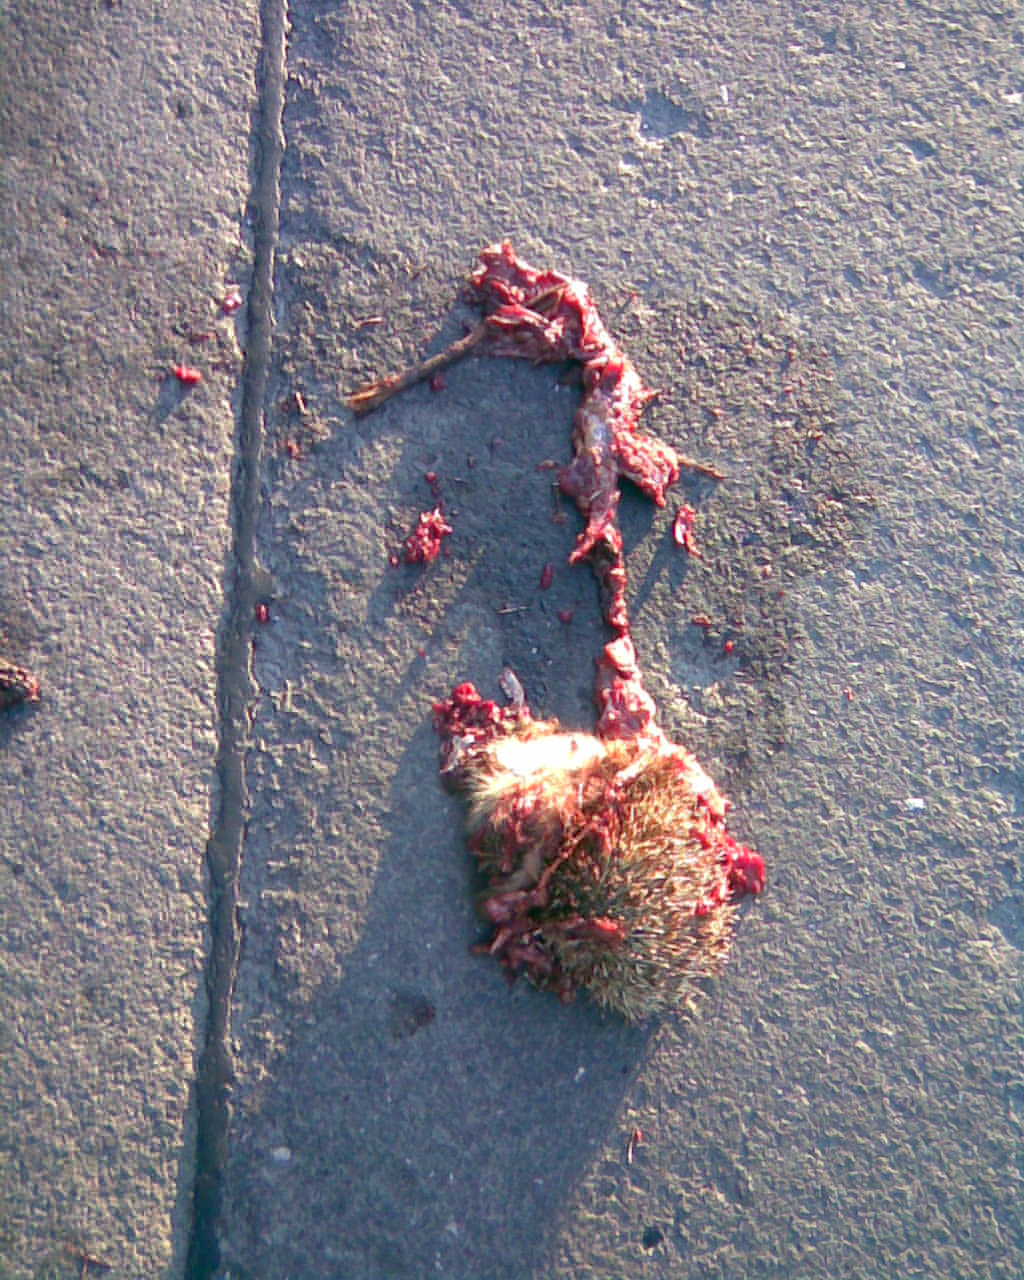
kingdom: Animalia
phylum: Chordata
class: Mammalia
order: Erinaceomorpha
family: Erinaceidae
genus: Erinaceus
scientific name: Erinaceus
